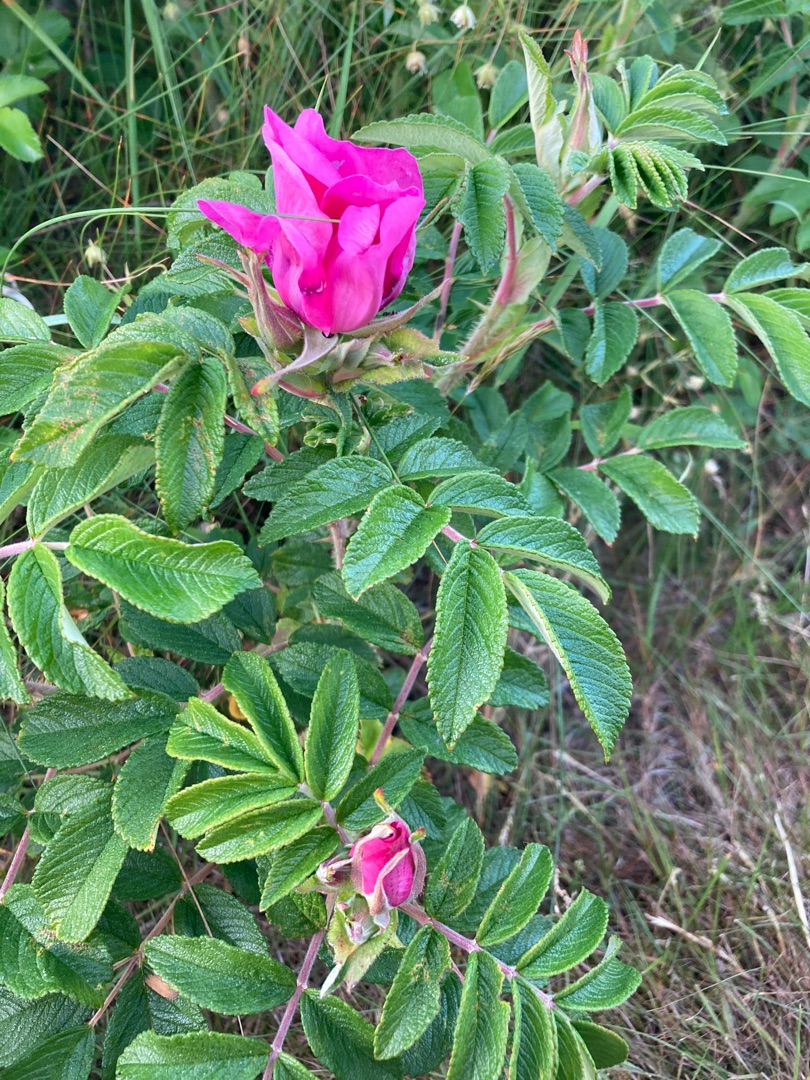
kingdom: Plantae
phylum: Tracheophyta
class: Magnoliopsida
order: Rosales
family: Rosaceae
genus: Rosa
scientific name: Rosa rugosa
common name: Rynket rose
